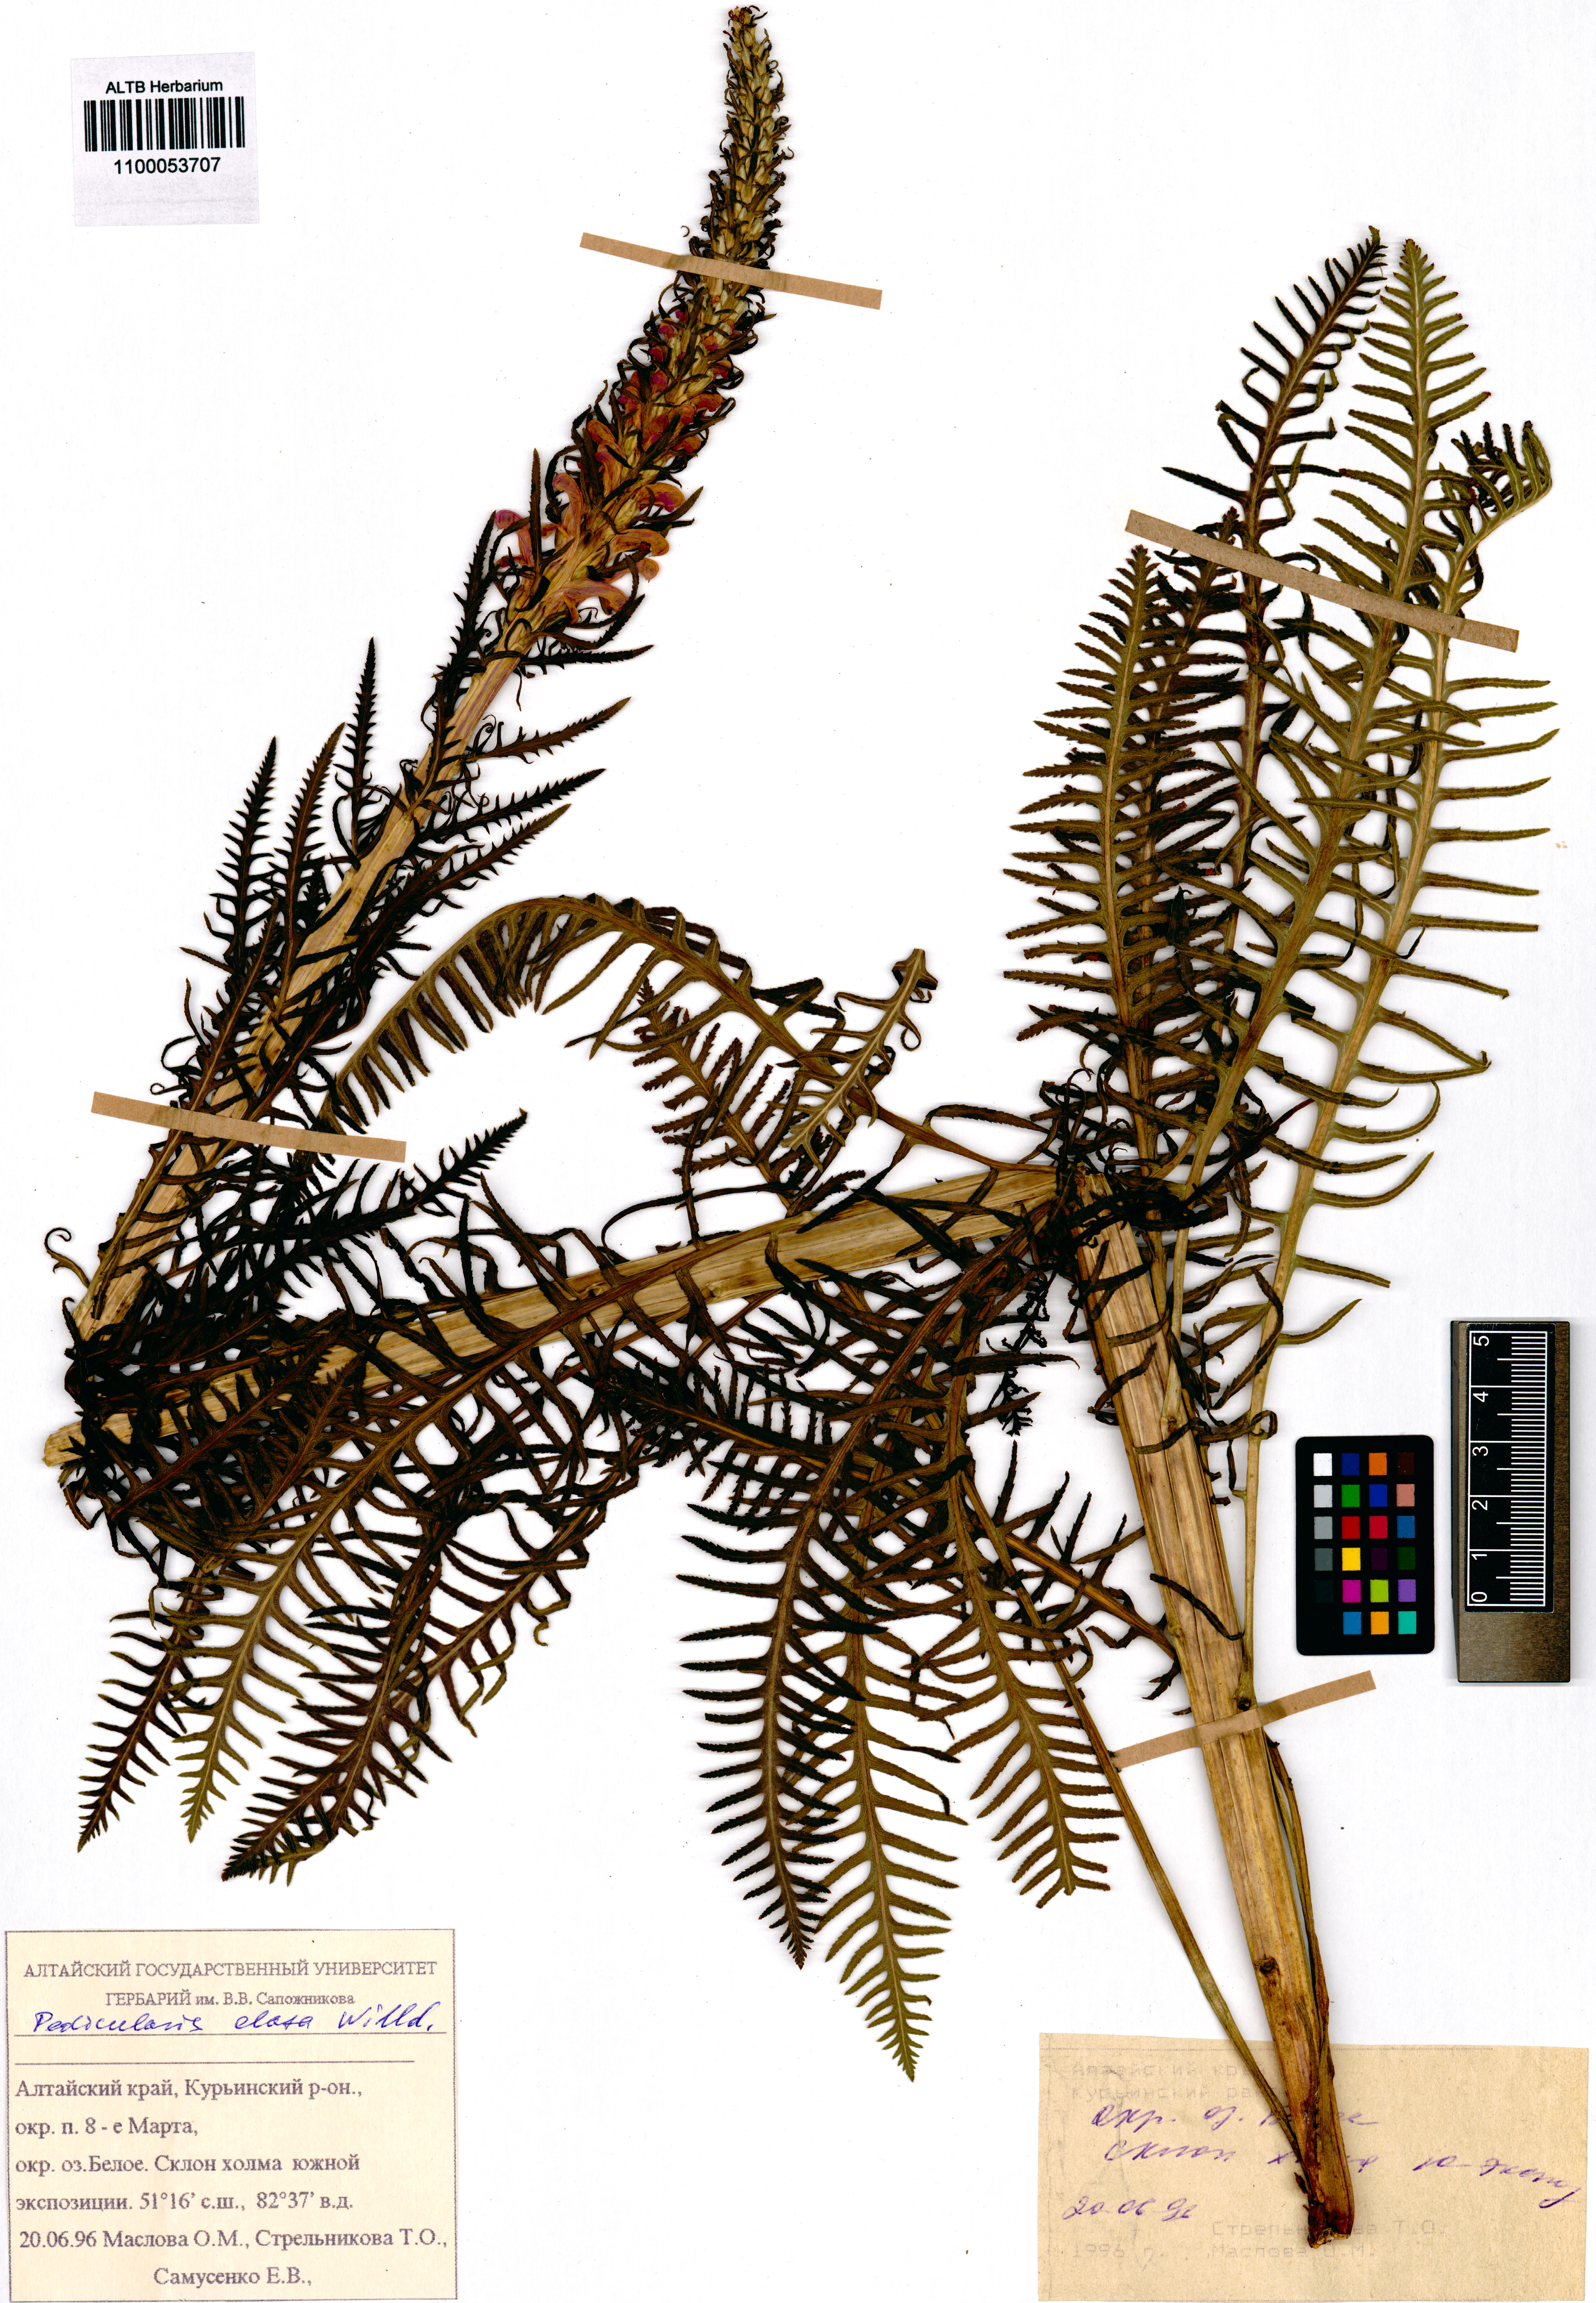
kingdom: Plantae
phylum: Tracheophyta
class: Magnoliopsida
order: Lamiales
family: Orobanchaceae
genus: Pedicularis
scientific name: Pedicularis elata
